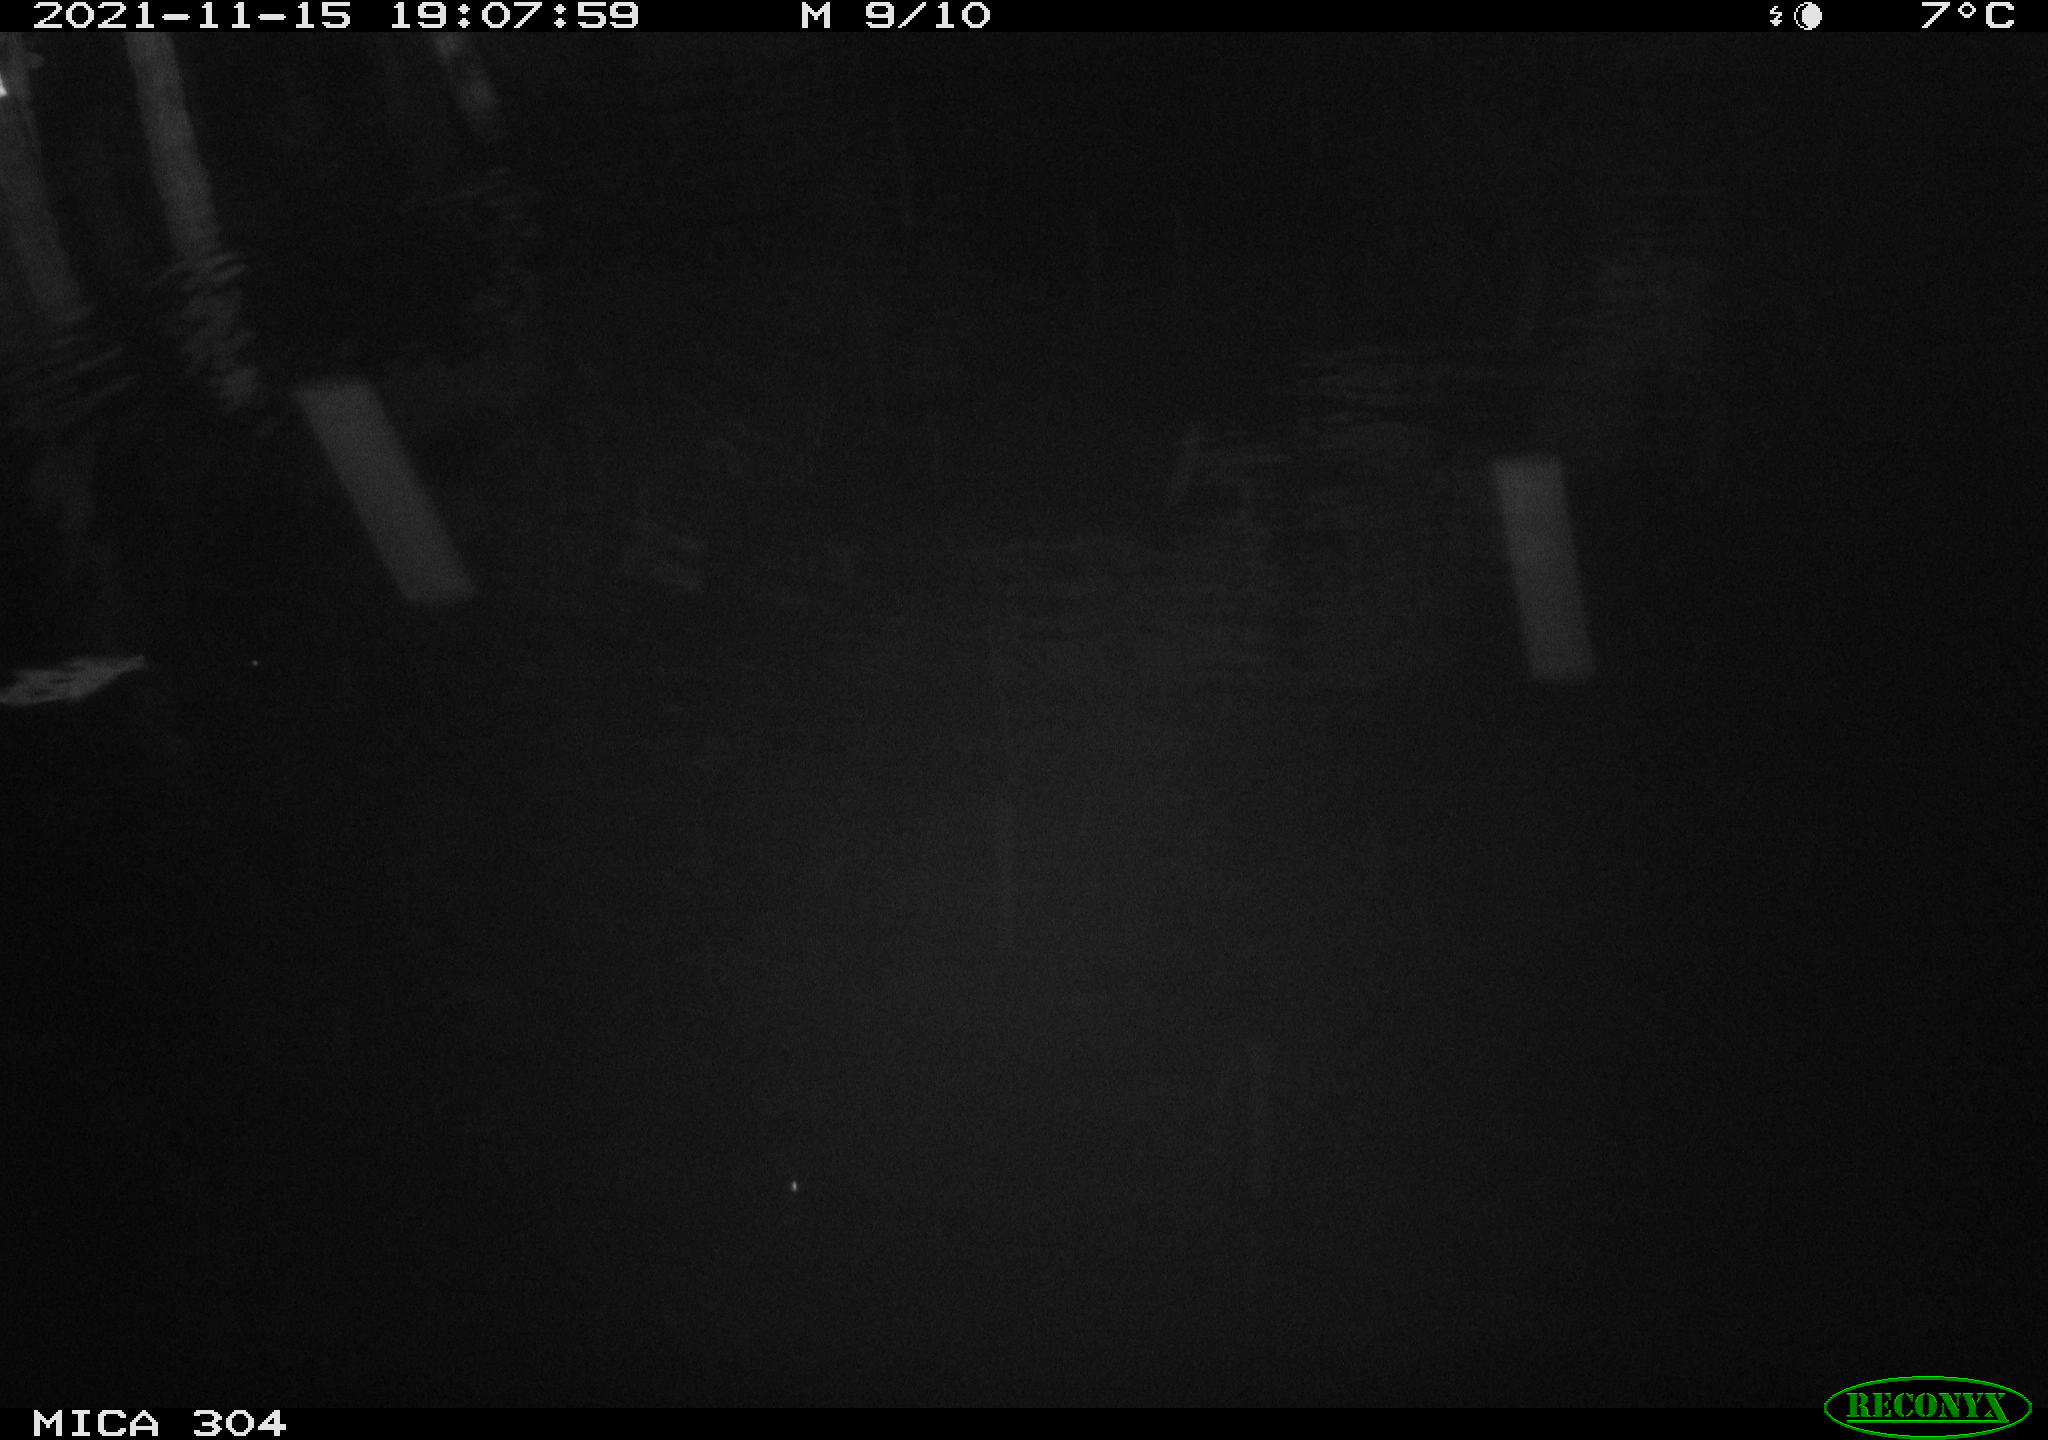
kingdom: Animalia
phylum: Chordata
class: Mammalia
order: Rodentia
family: Muridae
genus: Rattus
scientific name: Rattus norvegicus
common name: Brown rat
